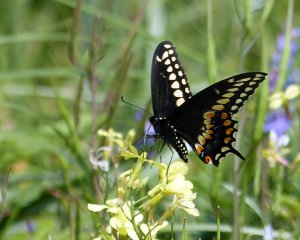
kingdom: Animalia
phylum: Arthropoda
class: Insecta
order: Lepidoptera
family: Papilionidae
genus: Papilio
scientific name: Papilio polyxenes
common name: Black Swallowtail
